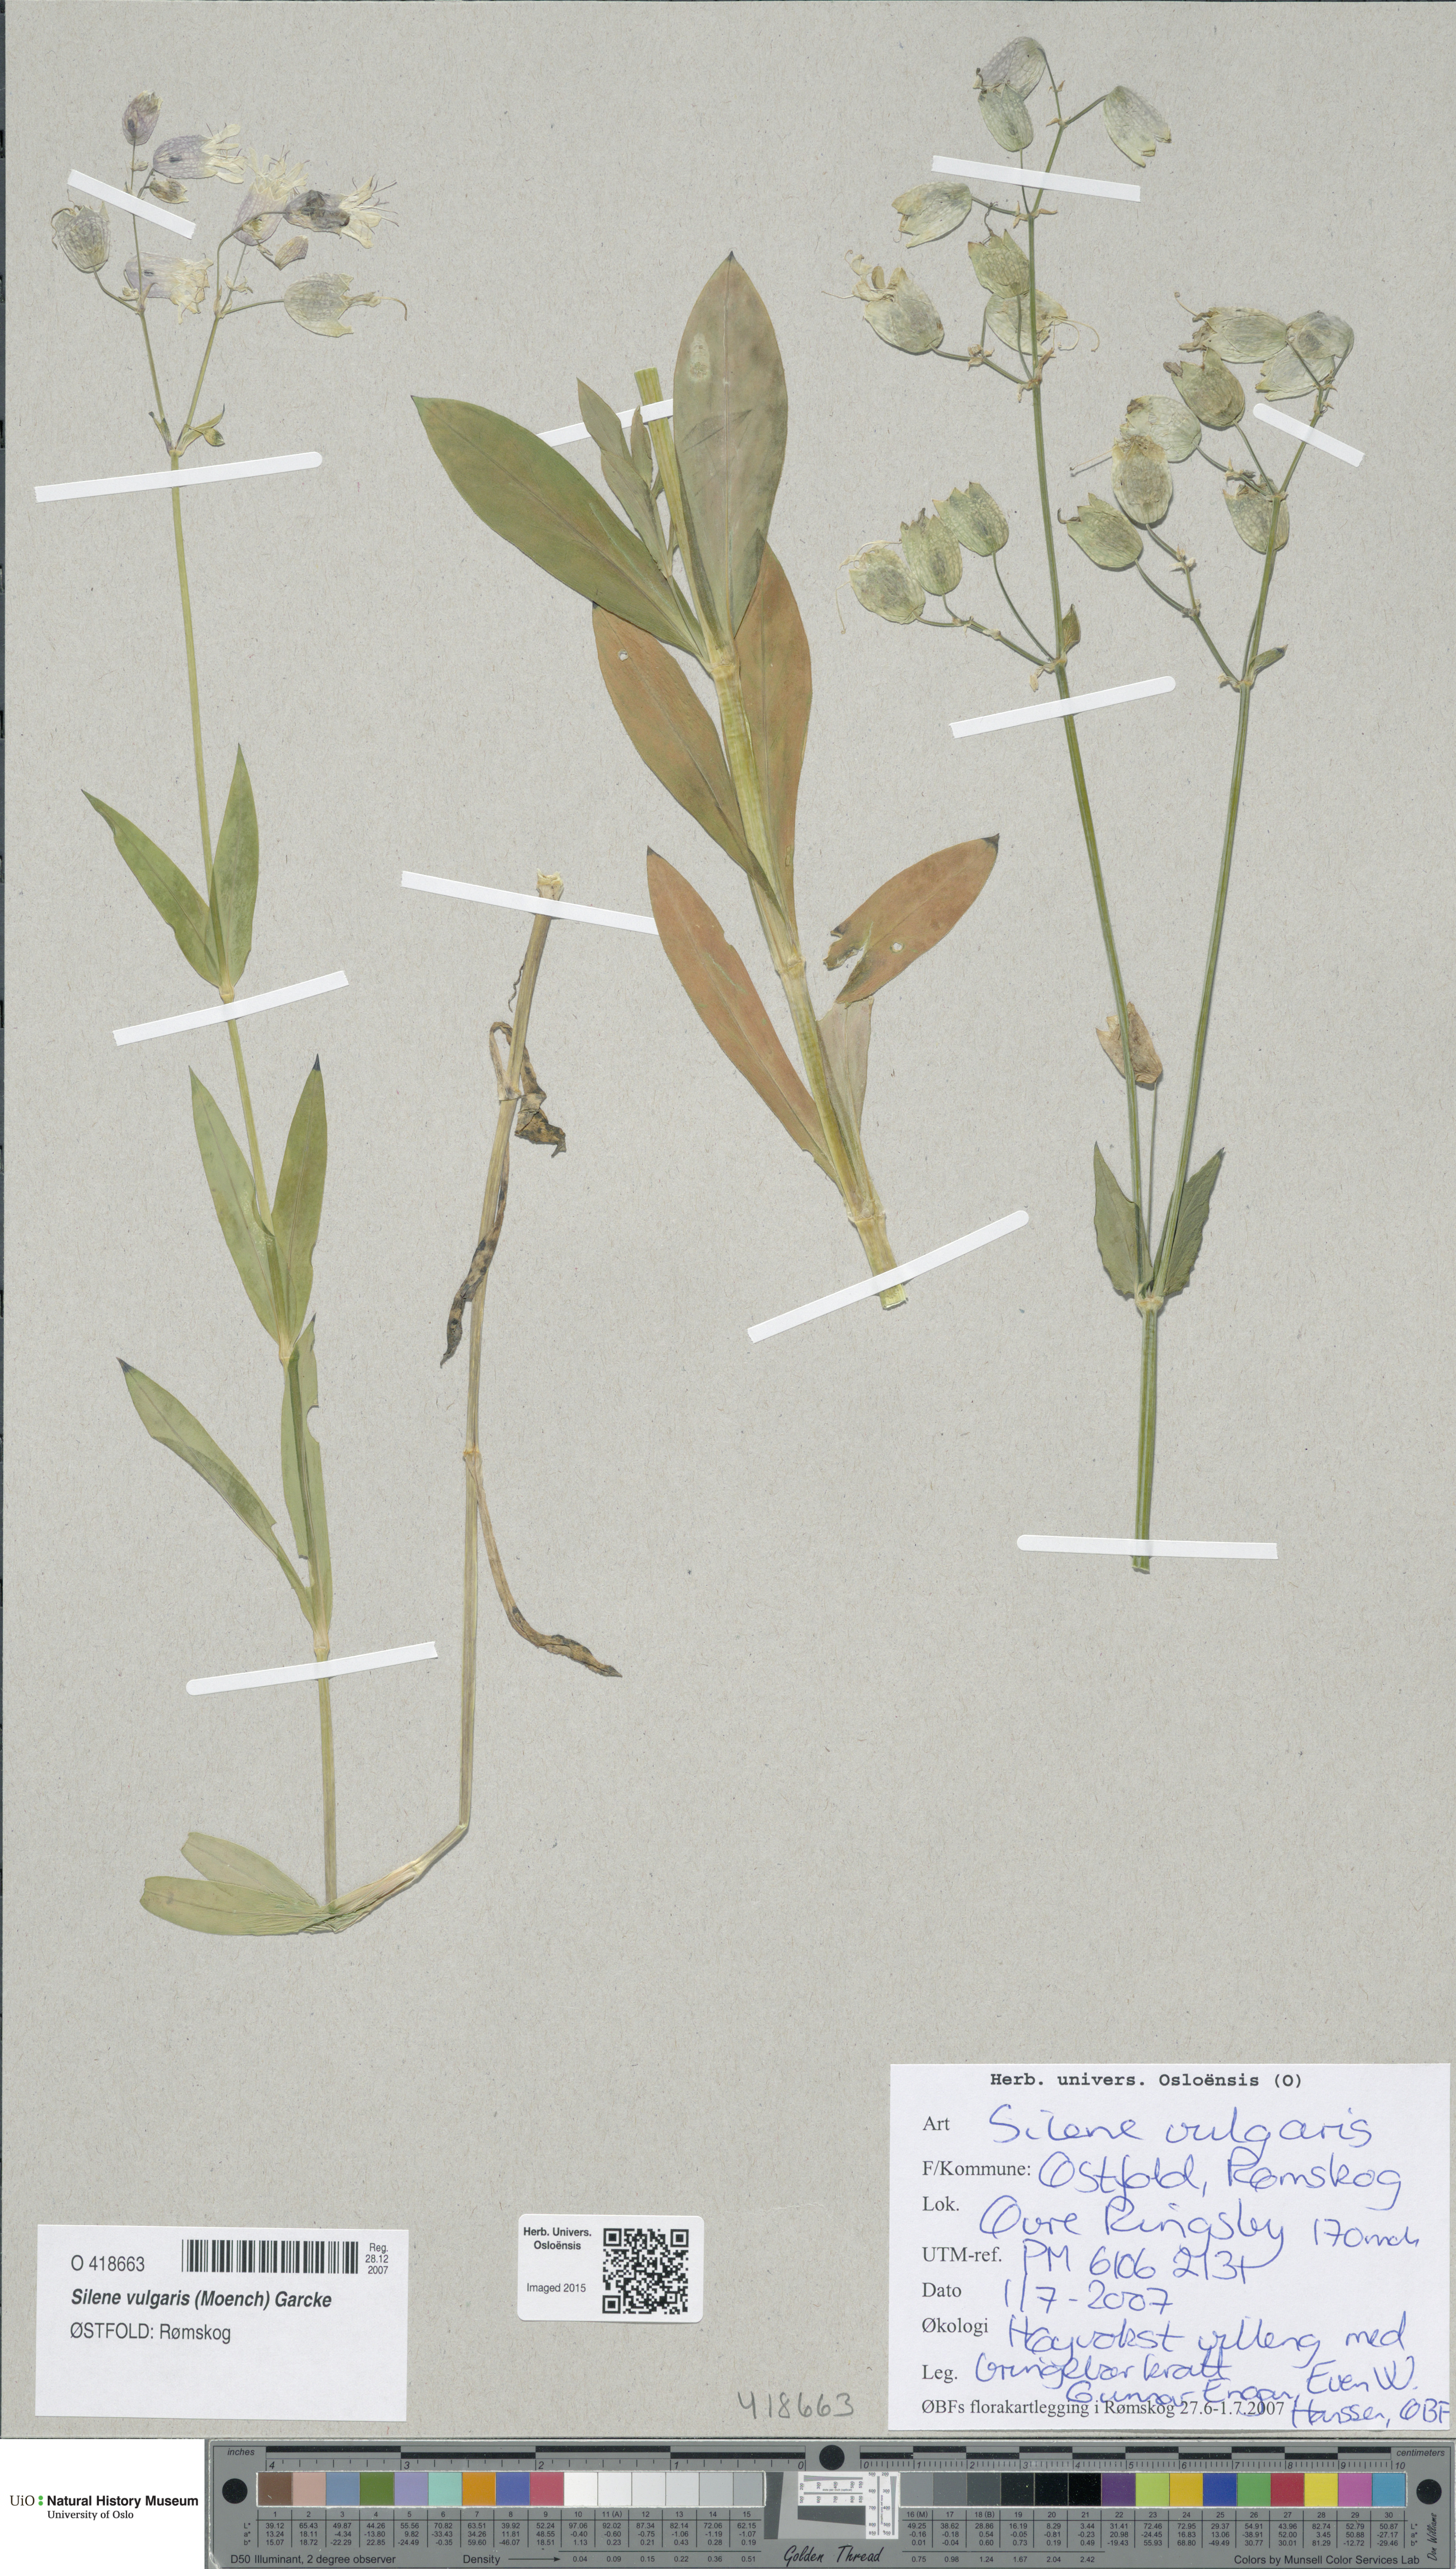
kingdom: Plantae
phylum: Tracheophyta
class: Magnoliopsida
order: Caryophyllales
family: Caryophyllaceae
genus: Silene
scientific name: Silene vulgaris
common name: Bladder campion
